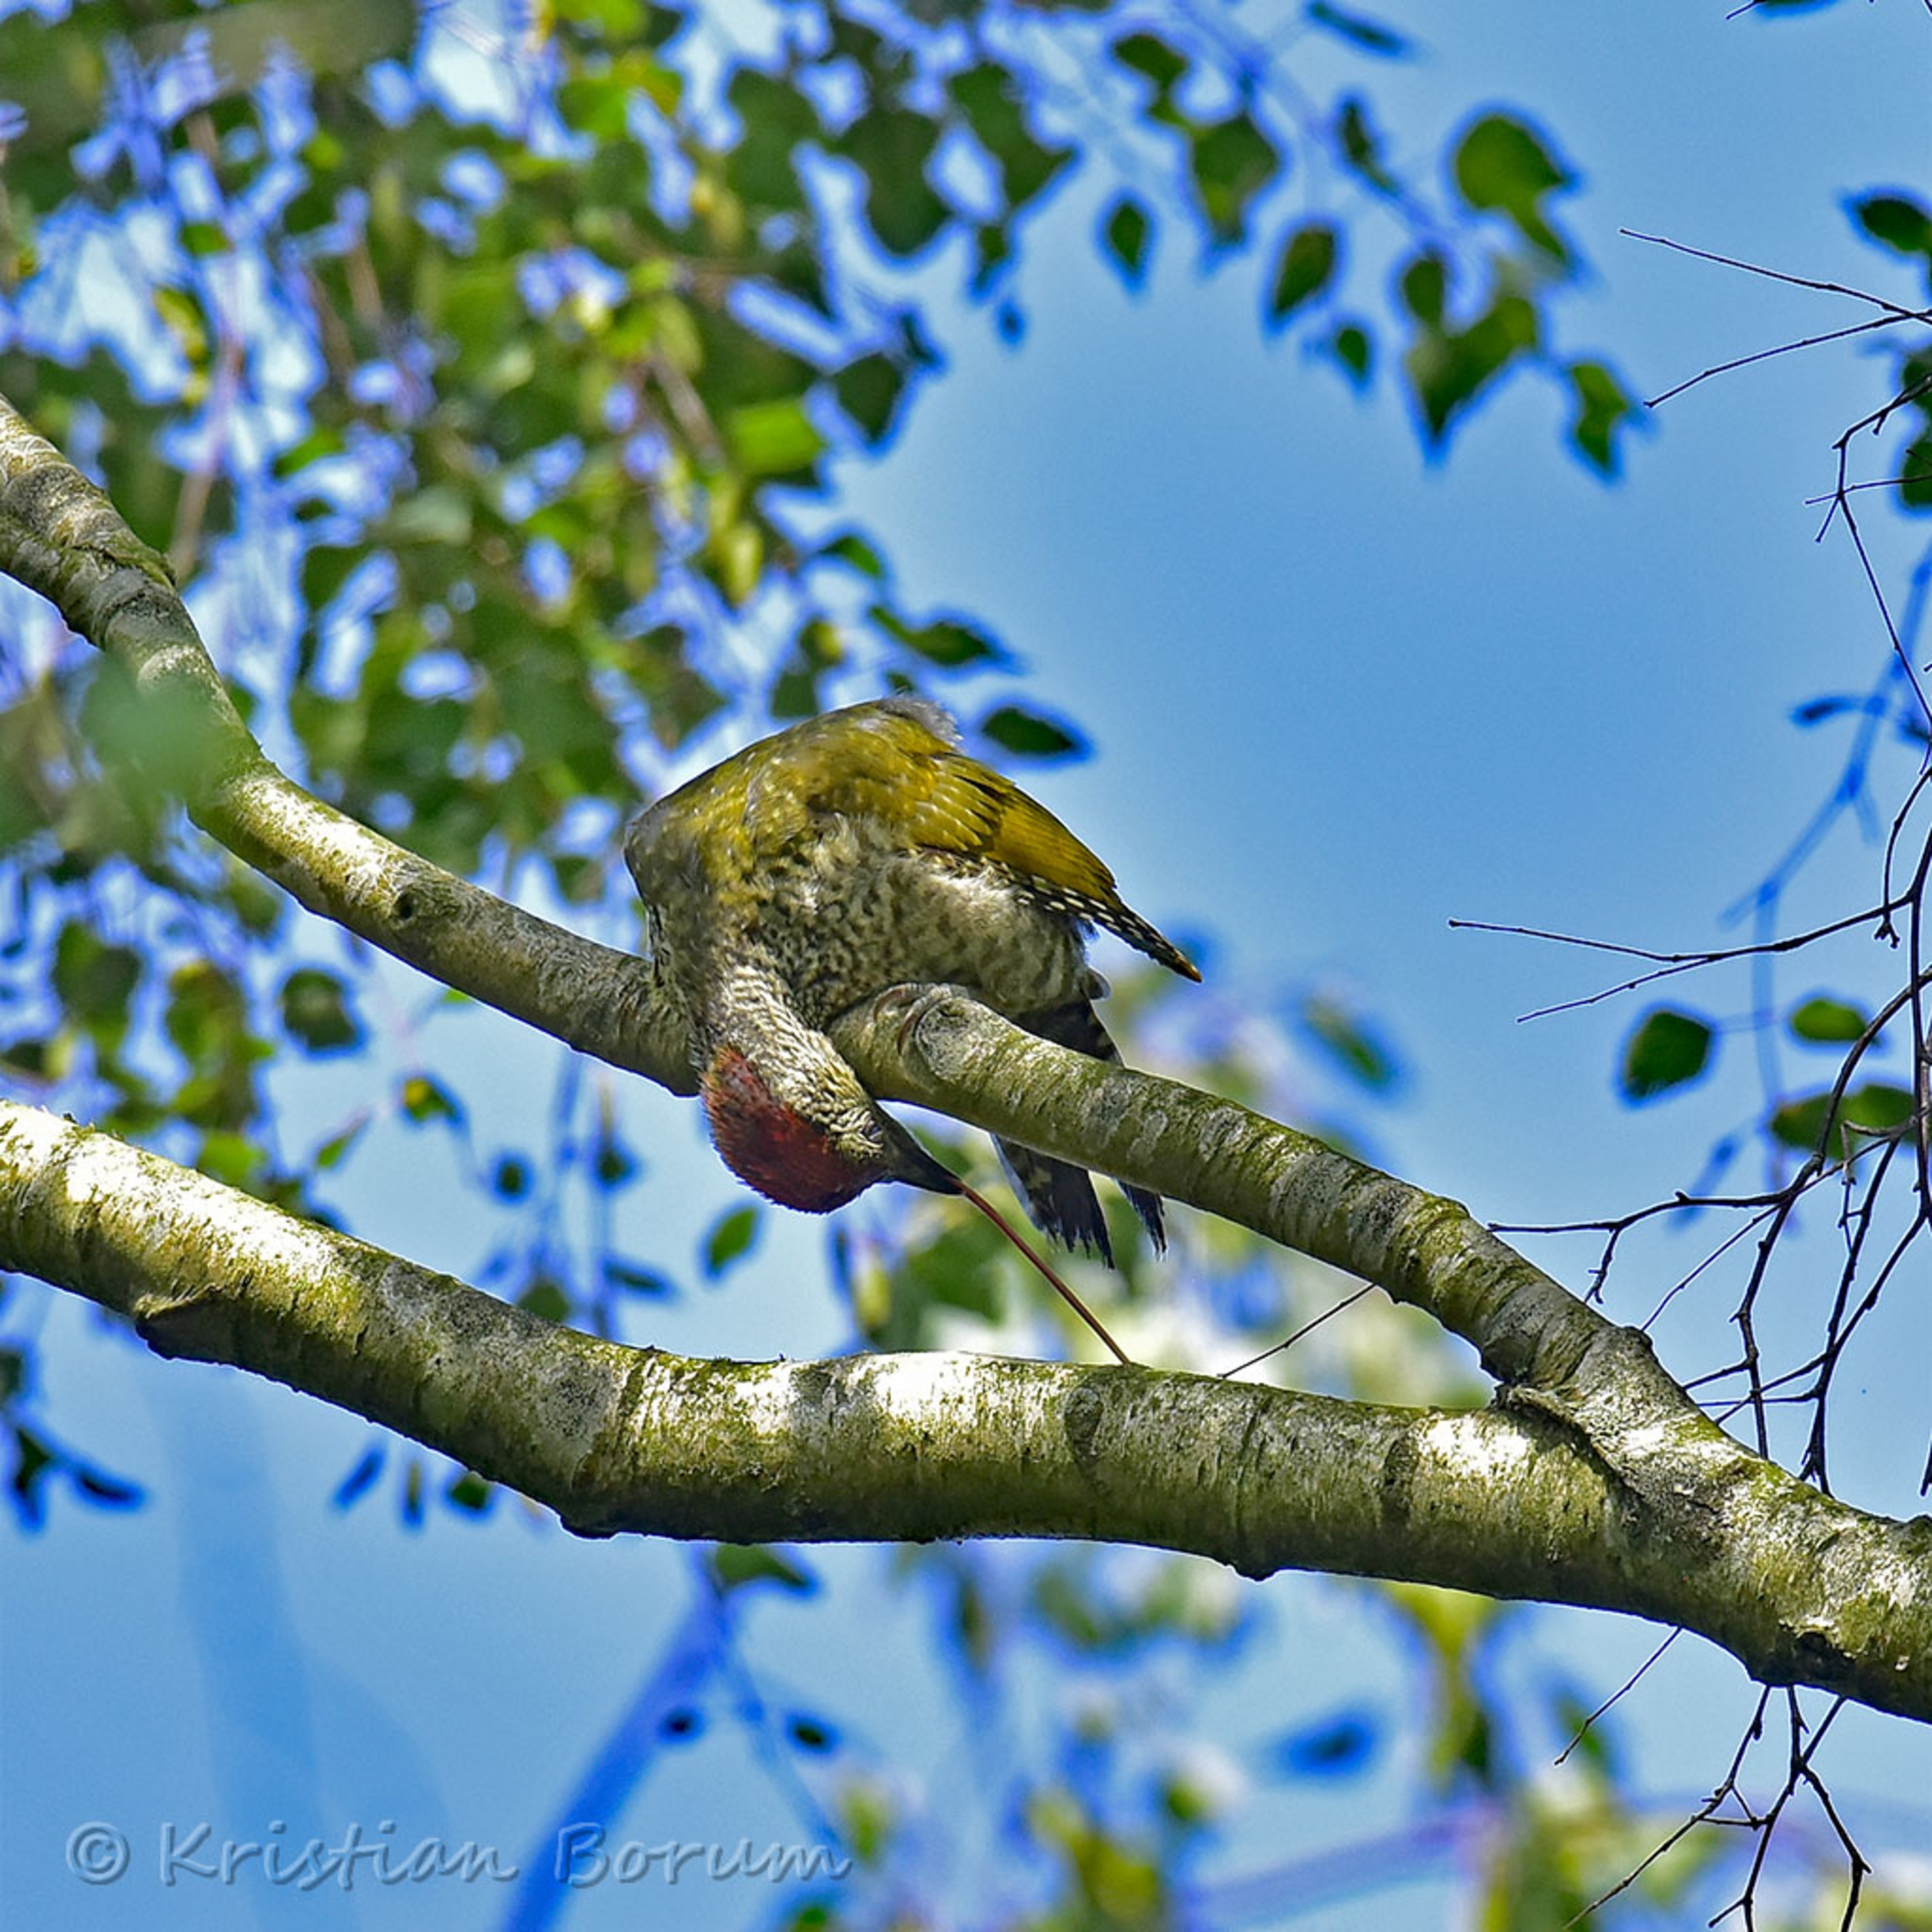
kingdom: Animalia
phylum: Chordata
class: Aves
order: Piciformes
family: Picidae
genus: Picus
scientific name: Picus viridis
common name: Grønspætte
